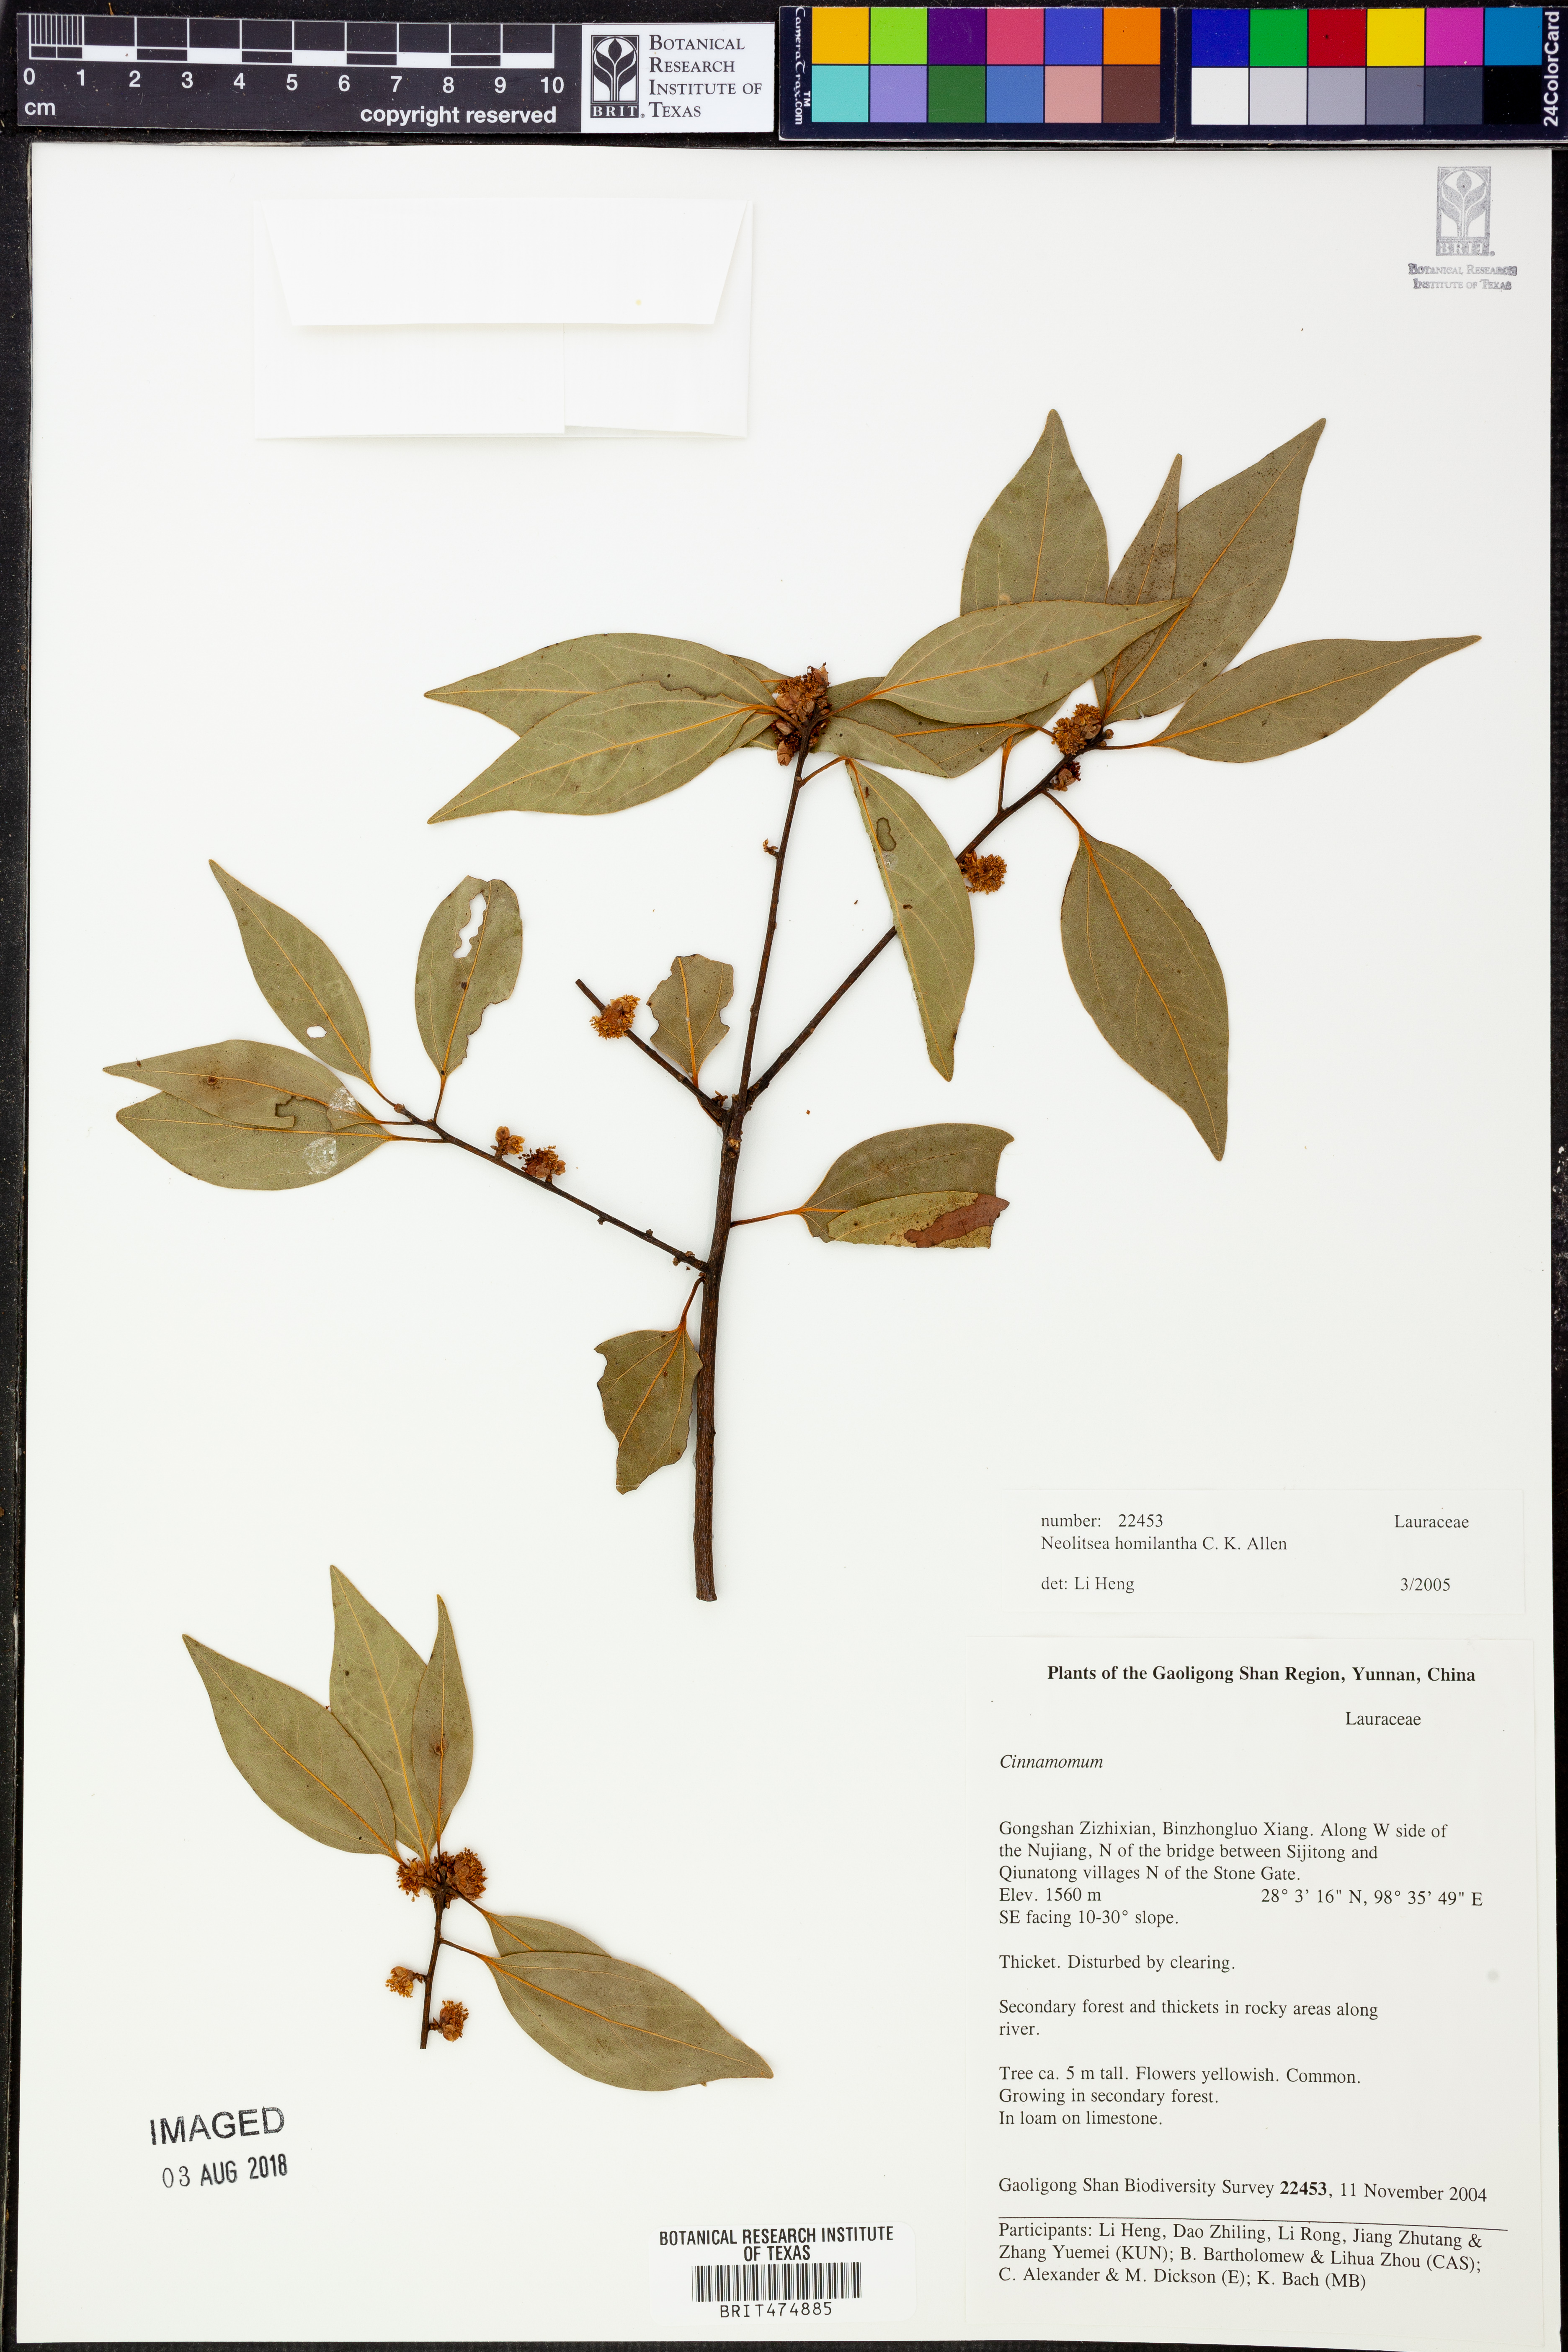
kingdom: Plantae
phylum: Tracheophyta
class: Magnoliopsida
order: Laurales
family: Lauraceae
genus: Neolitsea
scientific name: Neolitsea homilantha
